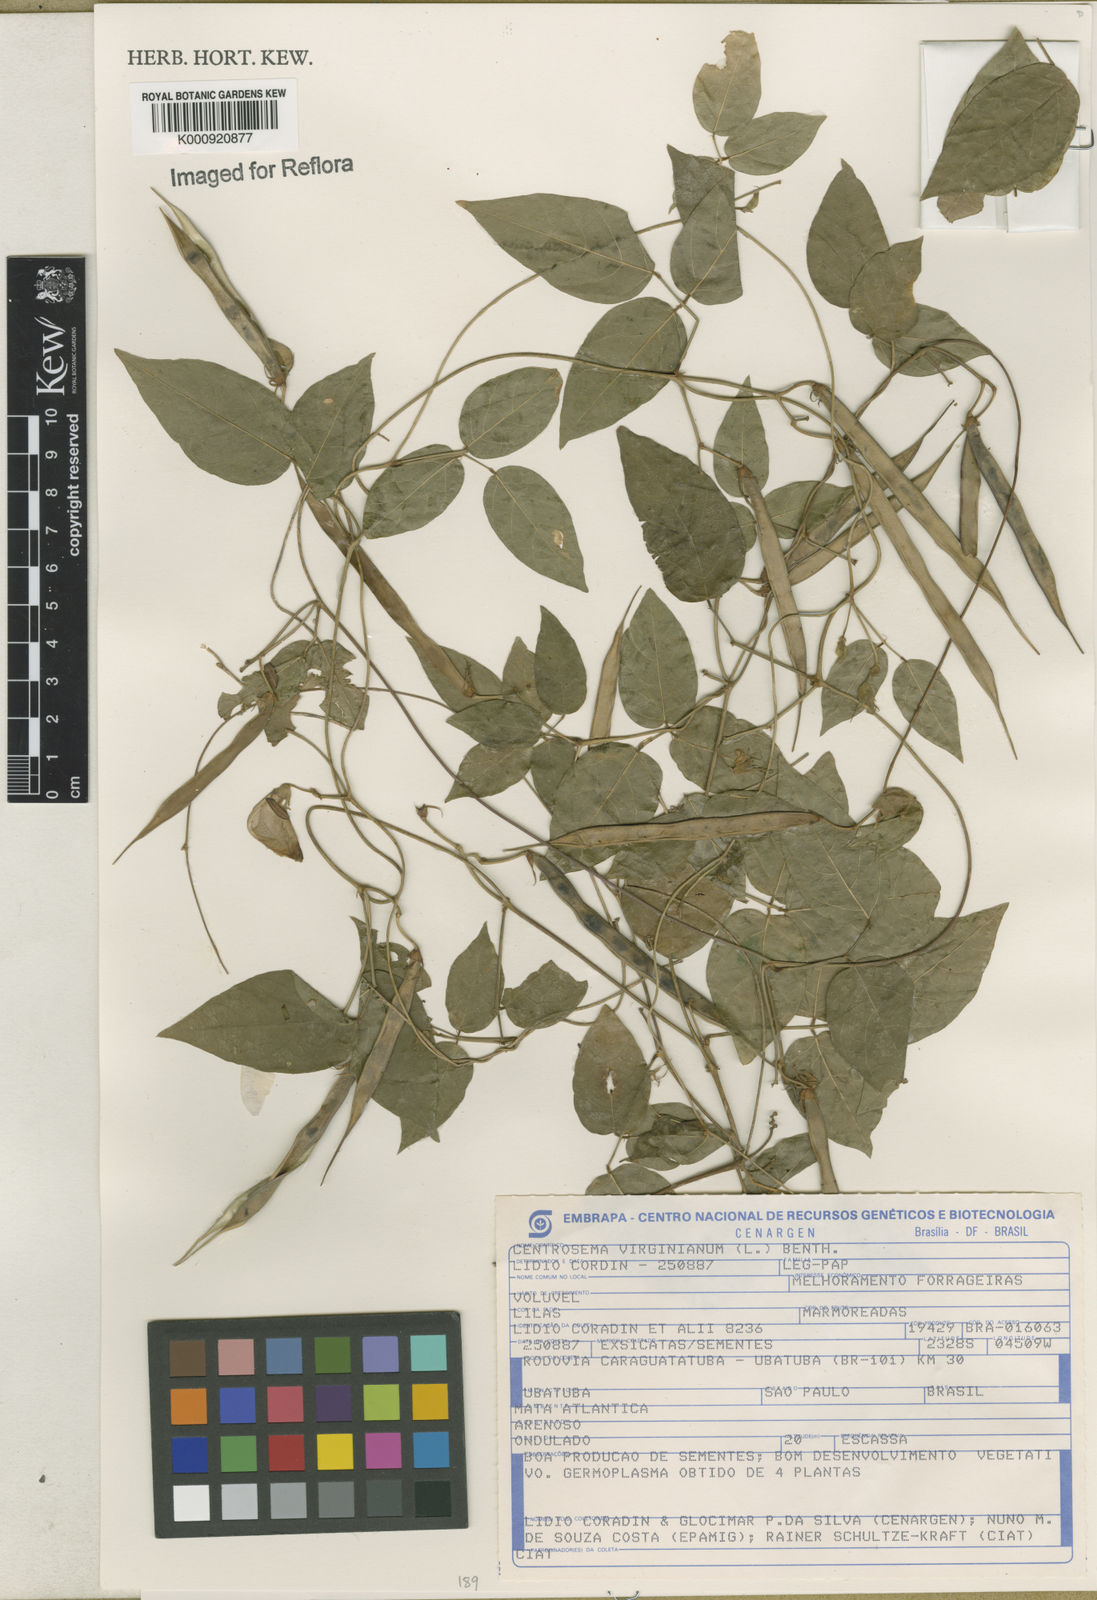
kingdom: Plantae
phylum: Tracheophyta
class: Magnoliopsida
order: Fabales
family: Fabaceae
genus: Centrosema
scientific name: Centrosema virginianum
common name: Butterfly-pea
